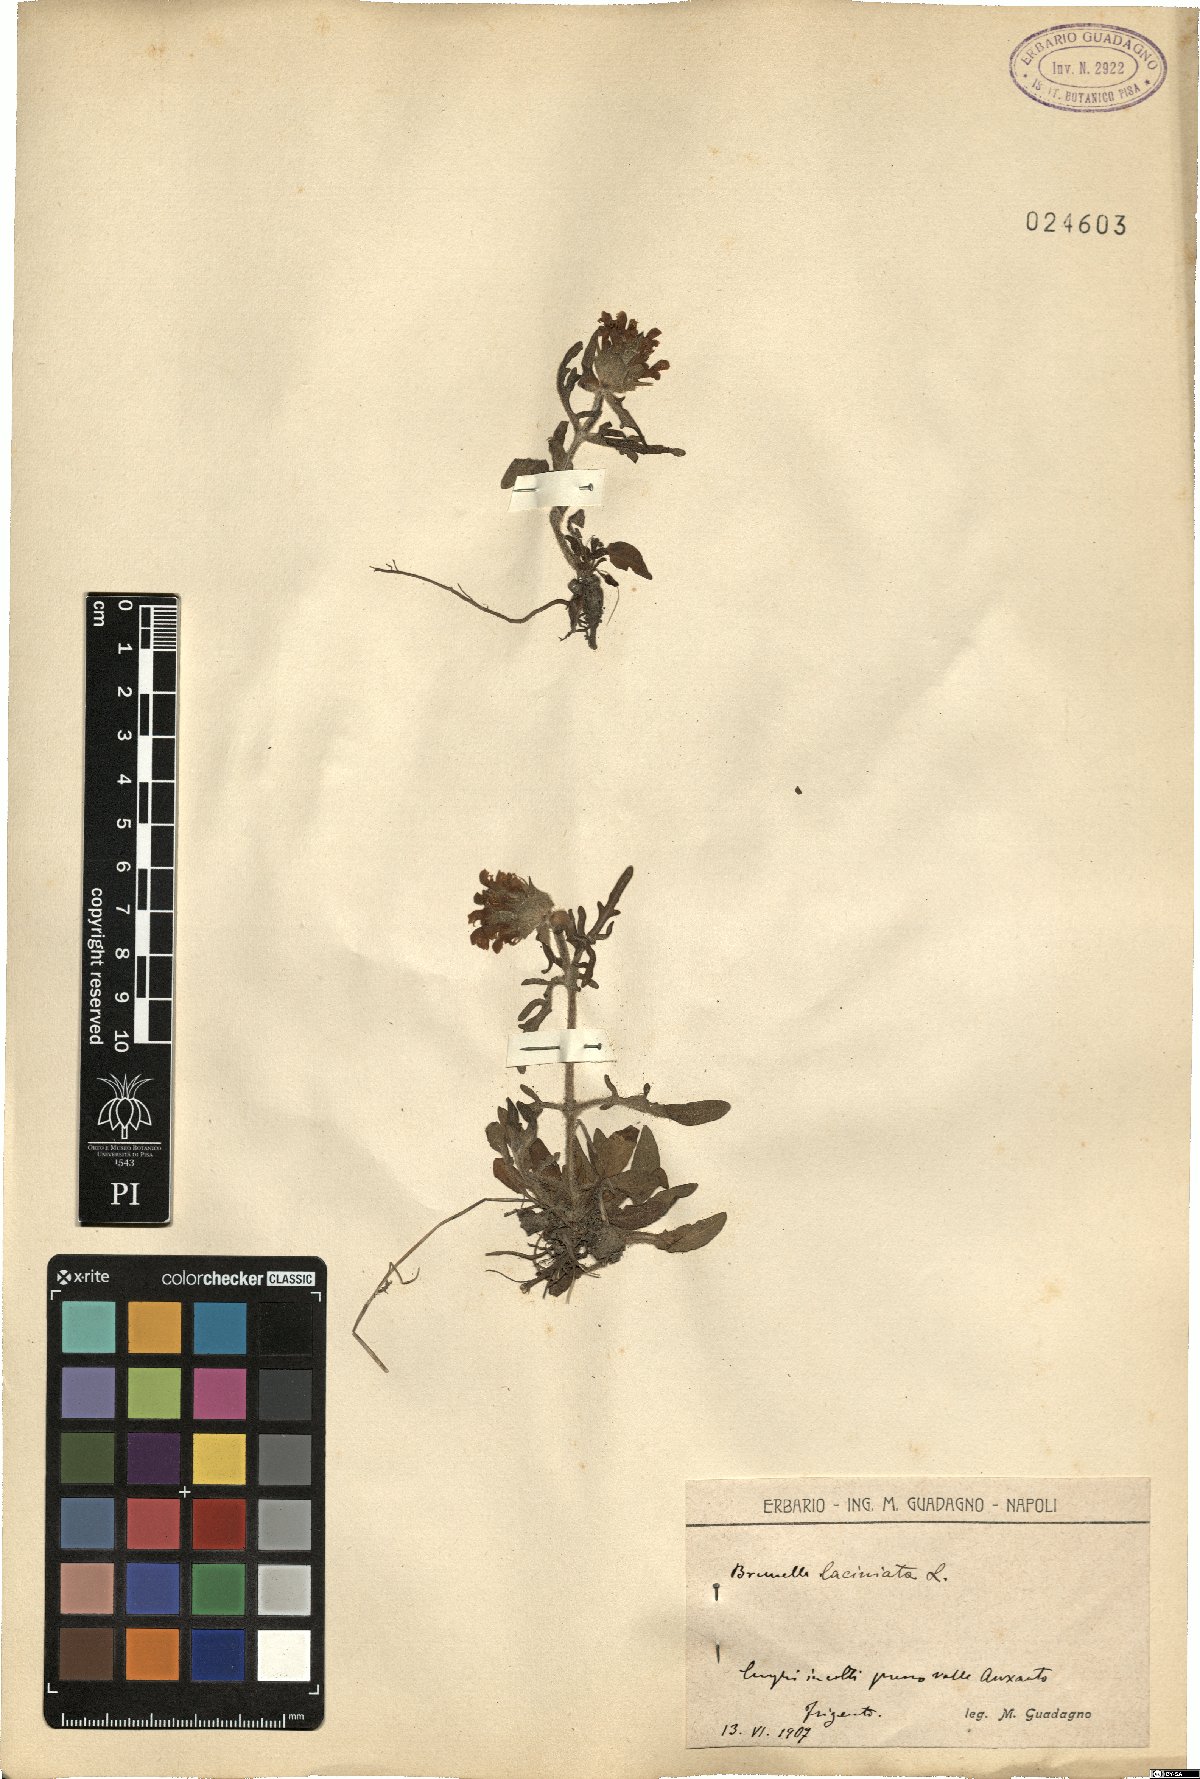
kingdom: Plantae
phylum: Tracheophyta
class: Magnoliopsida
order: Lamiales
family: Lamiaceae
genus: Prunella
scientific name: Prunella laciniata
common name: Cut-leaved selfheal
